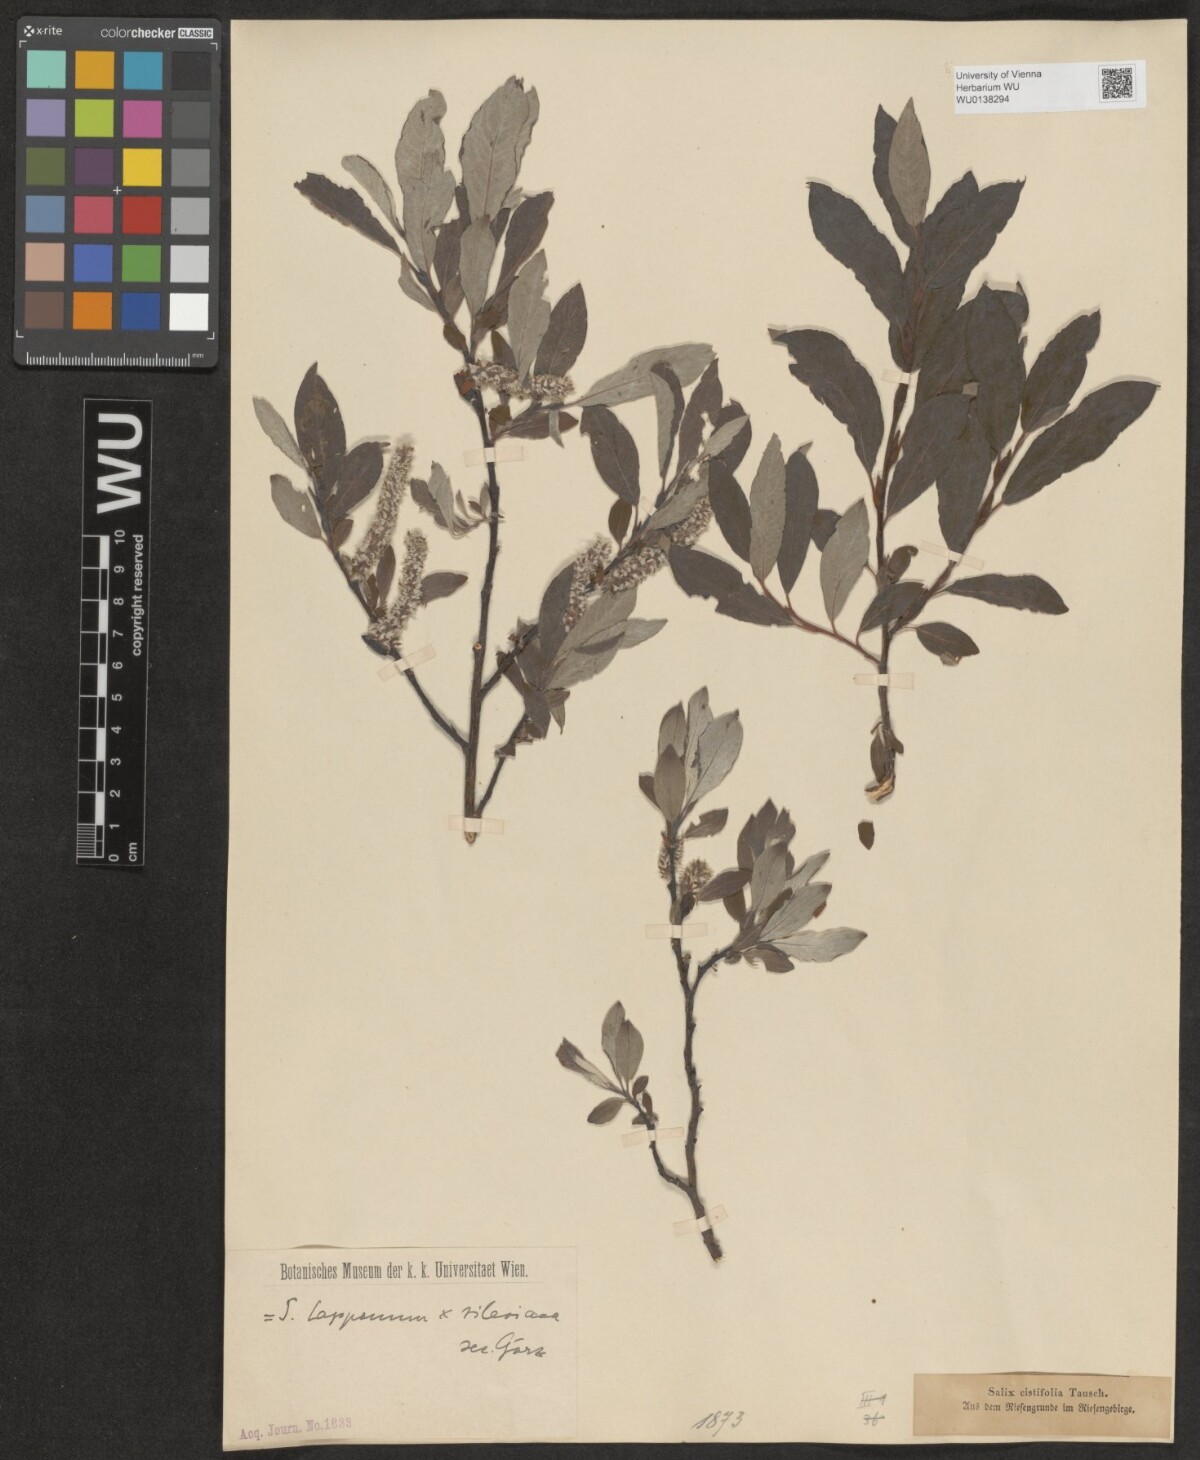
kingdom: Plantae
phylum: Tracheophyta
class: Magnoliopsida
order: Malpighiales
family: Salicaceae
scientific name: Salicaceae
